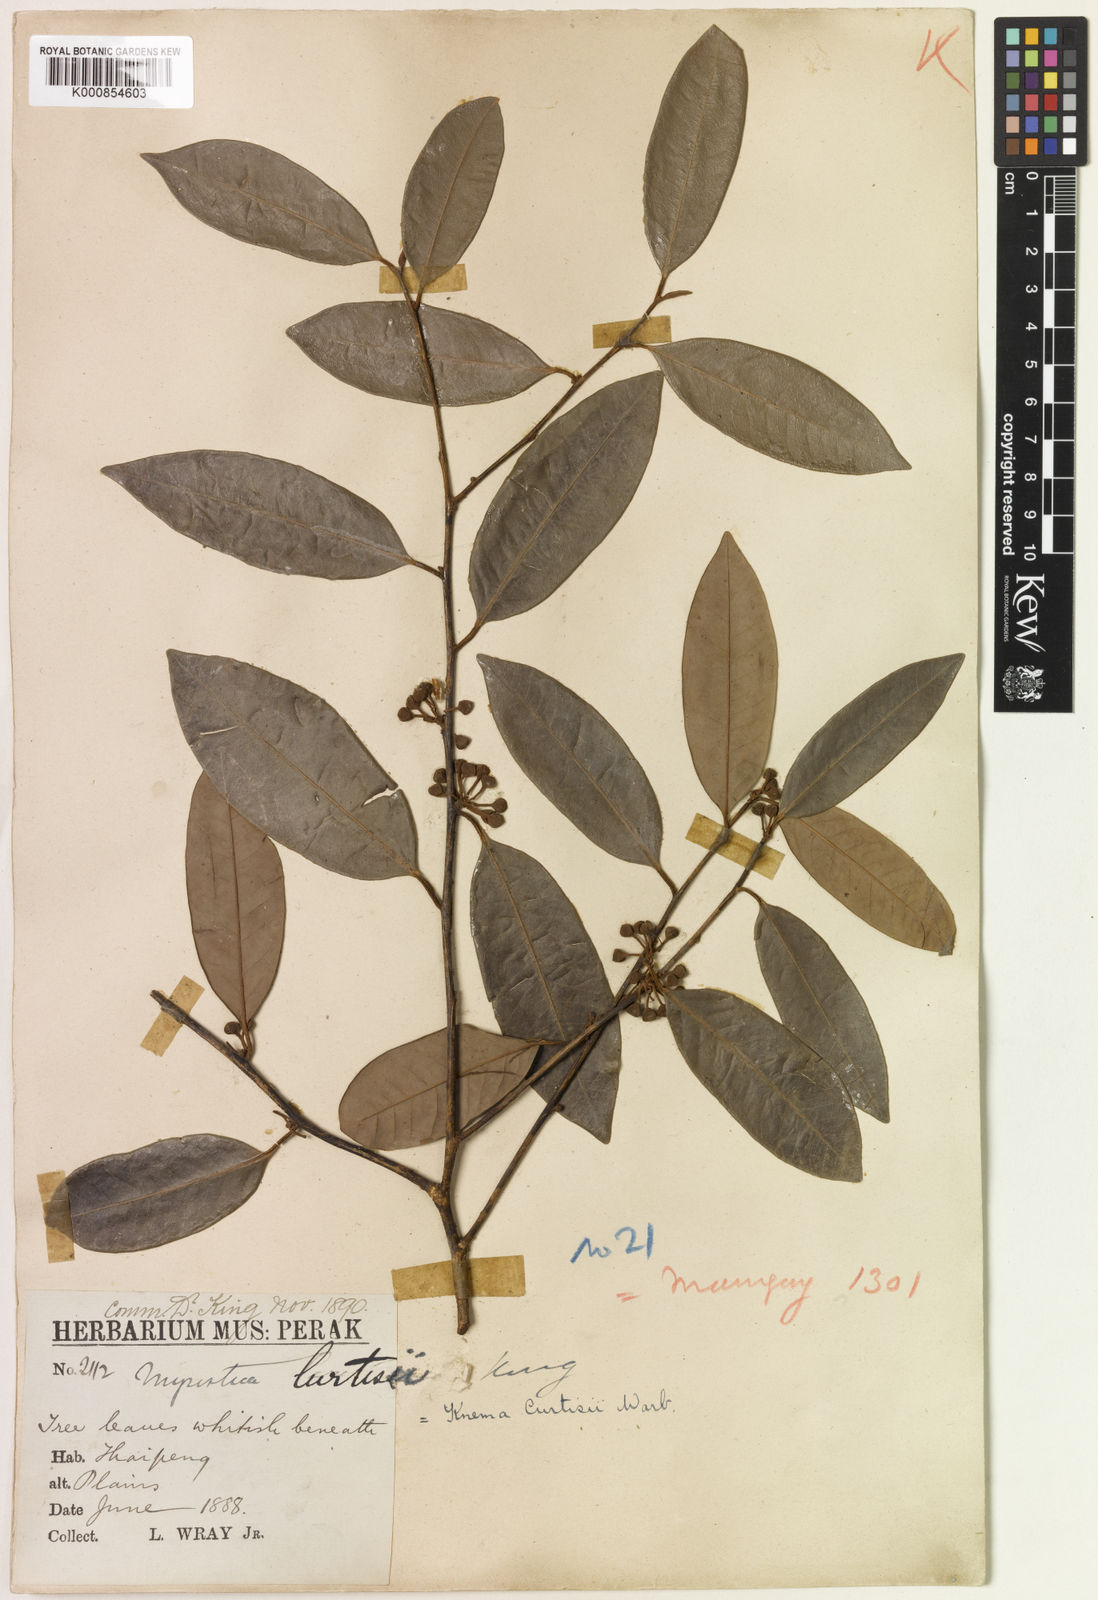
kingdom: Plantae
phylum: Tracheophyta
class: Magnoliopsida
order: Magnoliales
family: Myristicaceae
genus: Knema
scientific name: Knema curtisii
